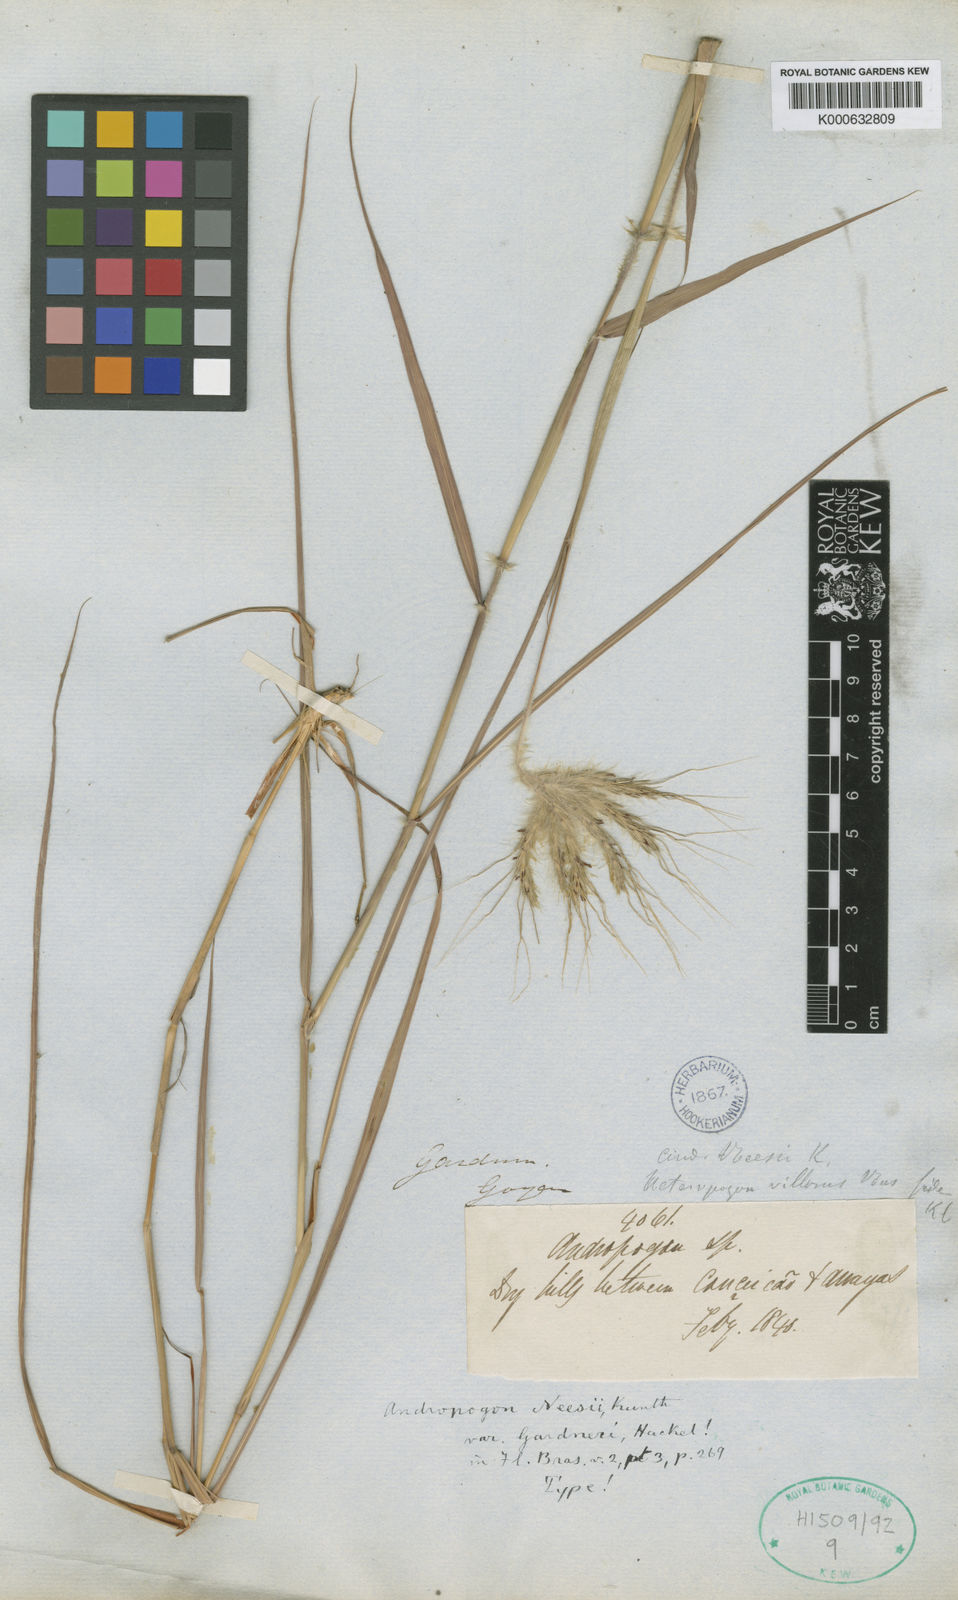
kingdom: Plantae
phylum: Tracheophyta
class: Liliopsida
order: Poales
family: Poaceae
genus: Agenium
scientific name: Agenium villosum
